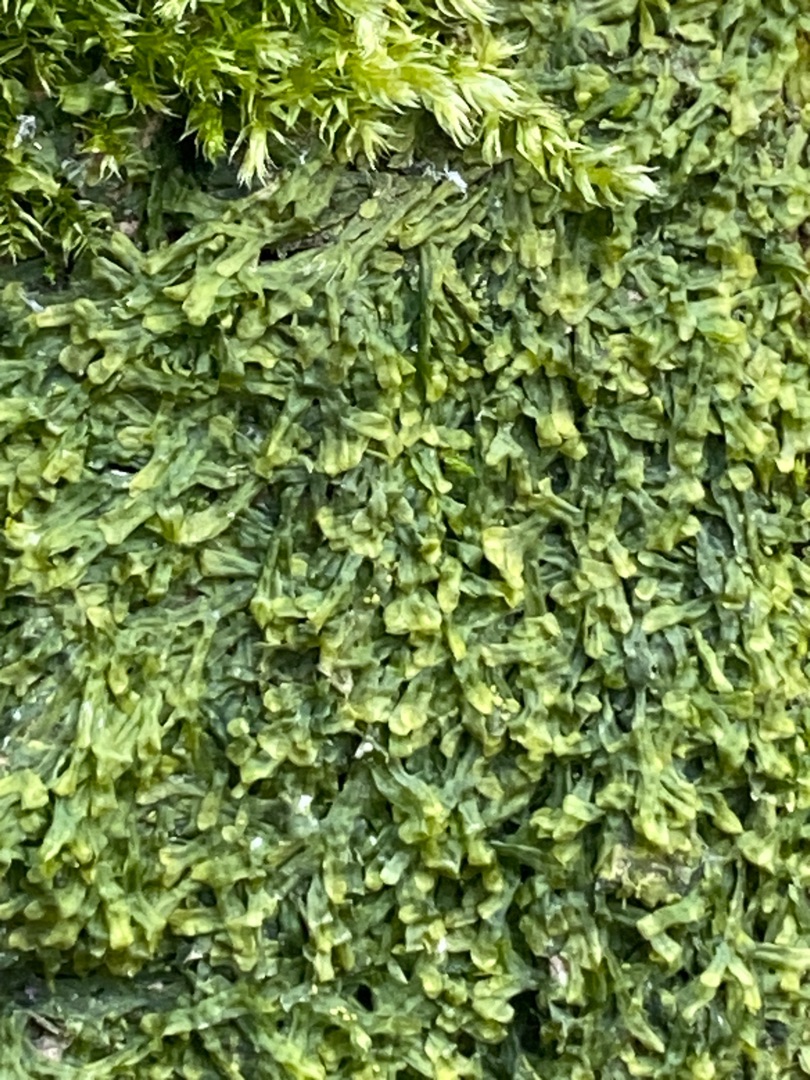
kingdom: Plantae
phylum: Marchantiophyta
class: Jungermanniopsida
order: Metzgeriales
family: Metzgeriaceae
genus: Metzgeria
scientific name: Metzgeria furcata
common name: Almindelig gaffelløv
